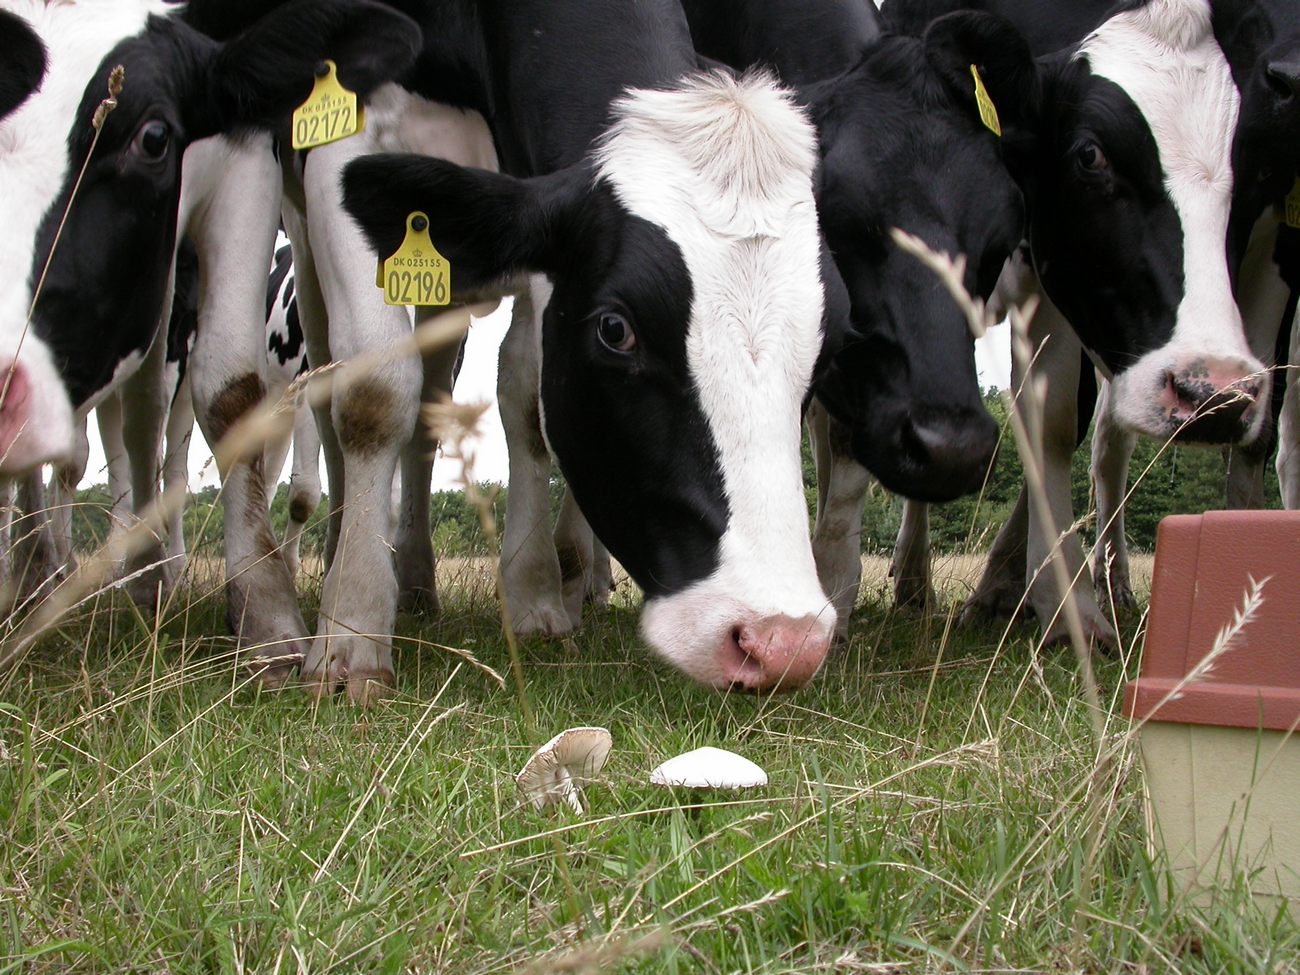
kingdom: Fungi
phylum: Basidiomycota
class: Agaricomycetes
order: Agaricales
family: Agaricaceae
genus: Macrolepiota
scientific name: Macrolepiota excoriata
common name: mark-kæmpeparasolhat
